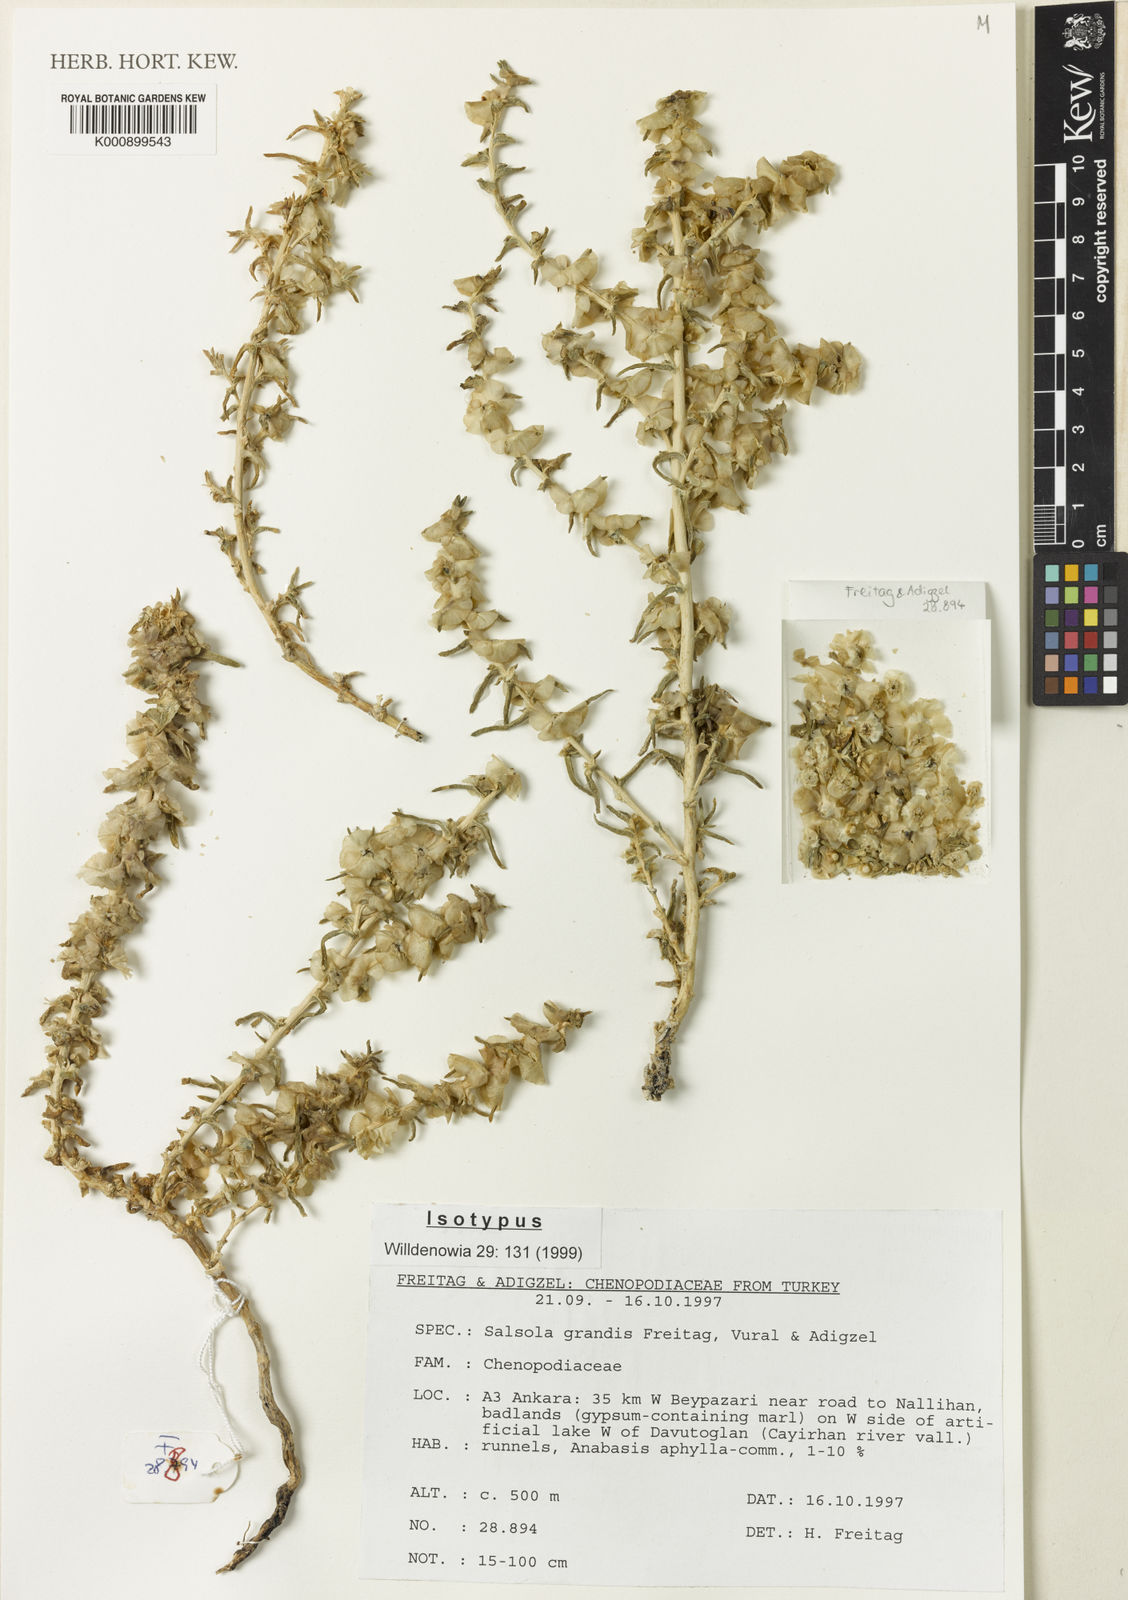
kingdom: Plantae
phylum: Tracheophyta
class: Magnoliopsida
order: Caryophyllales
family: Amaranthaceae
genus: Salsola
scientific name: Salsola
